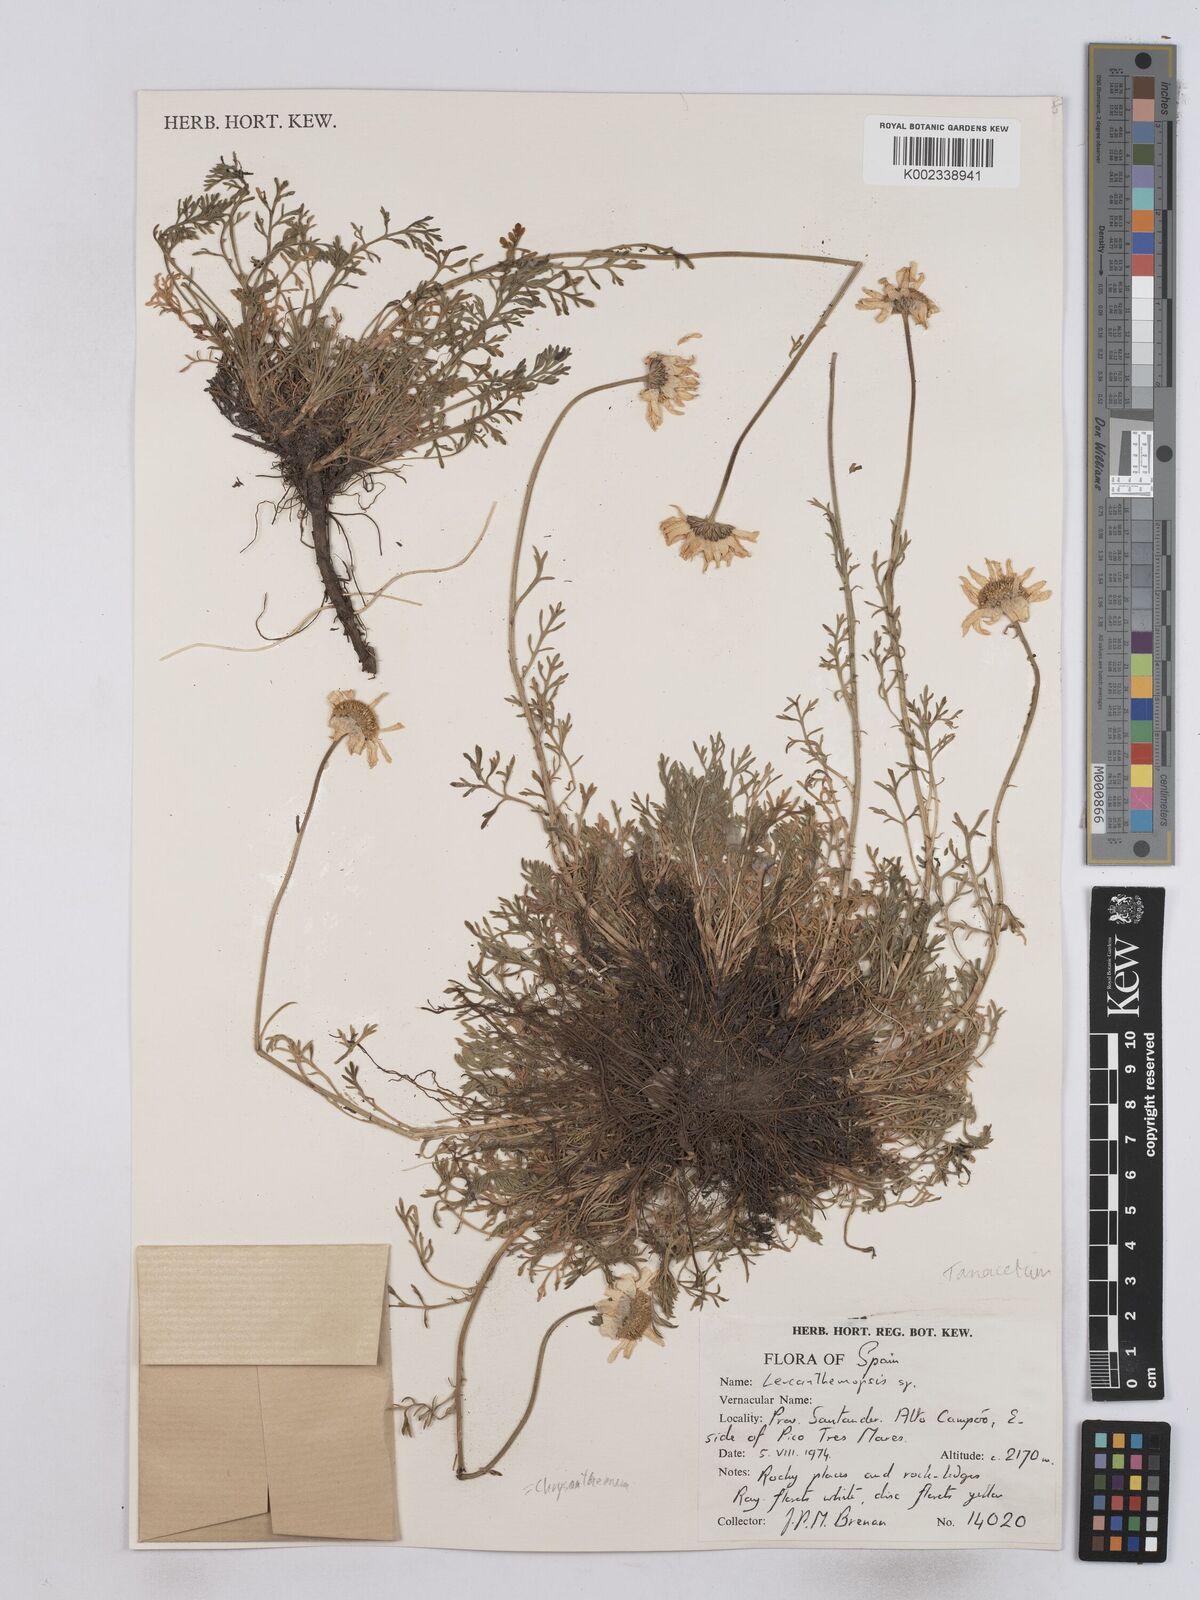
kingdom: Plantae
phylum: Tracheophyta
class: Magnoliopsida
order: Asterales
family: Asteraceae
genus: Tanacetum
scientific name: Tanacetum
